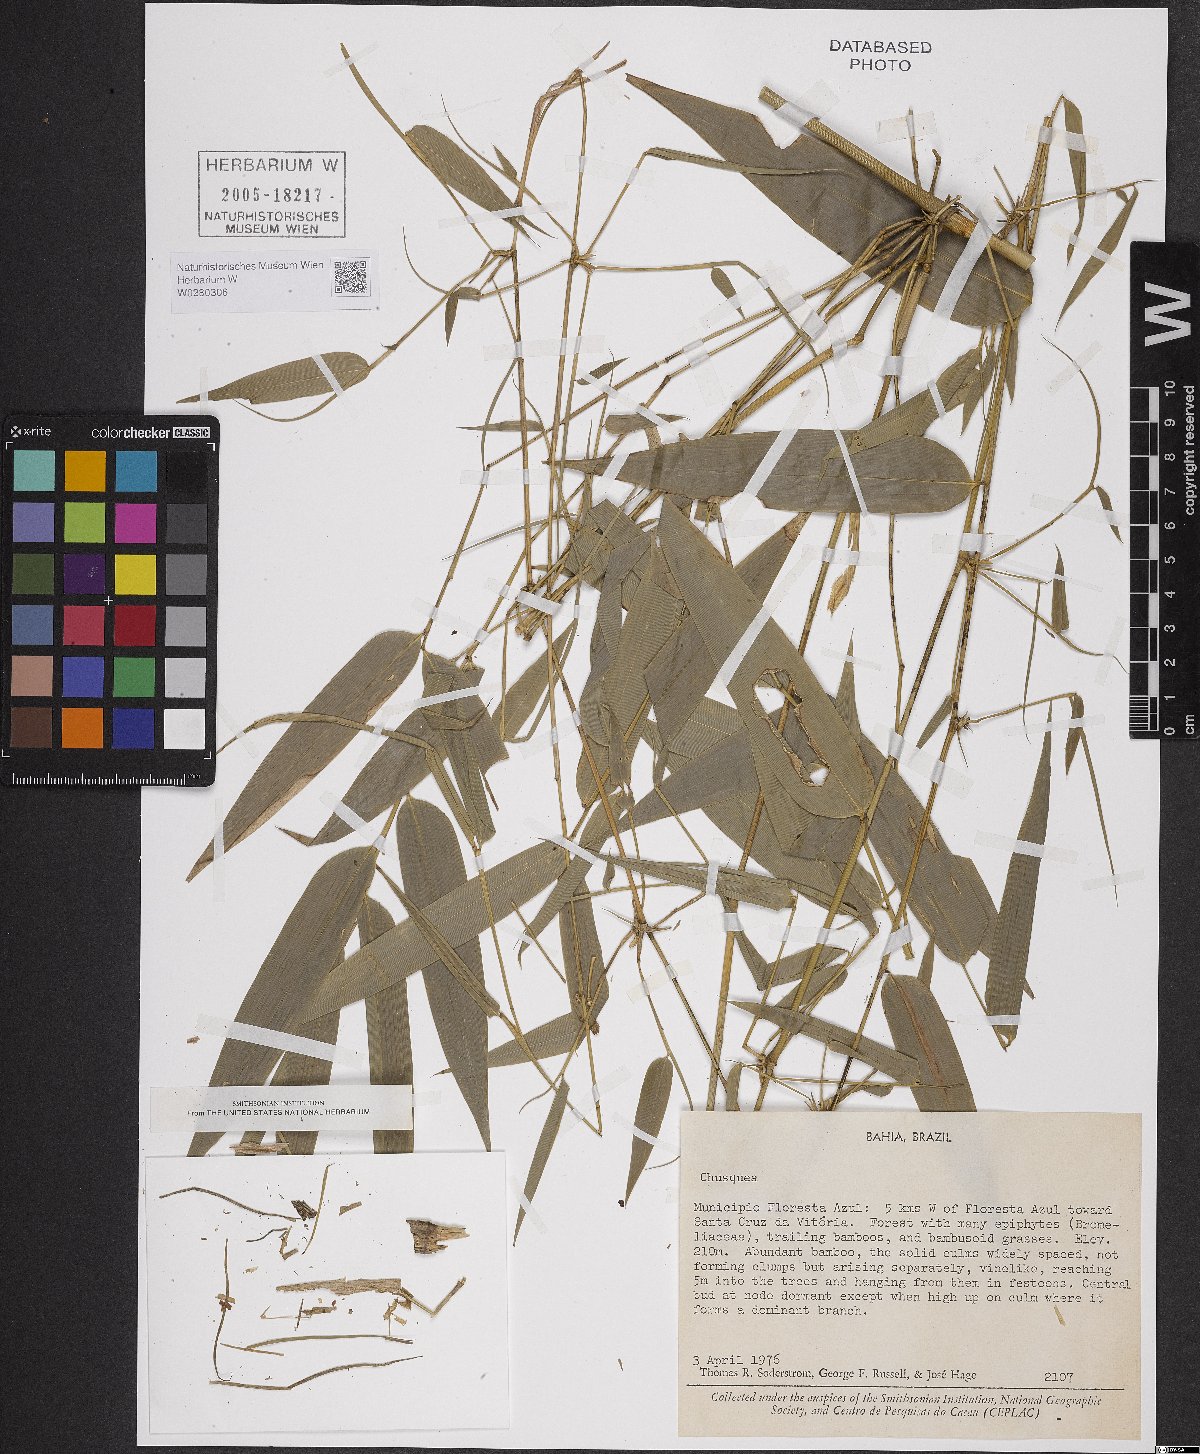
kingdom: Plantae
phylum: Tracheophyta
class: Liliopsida
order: Poales
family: Poaceae
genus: Chusquea
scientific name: Chusquea
